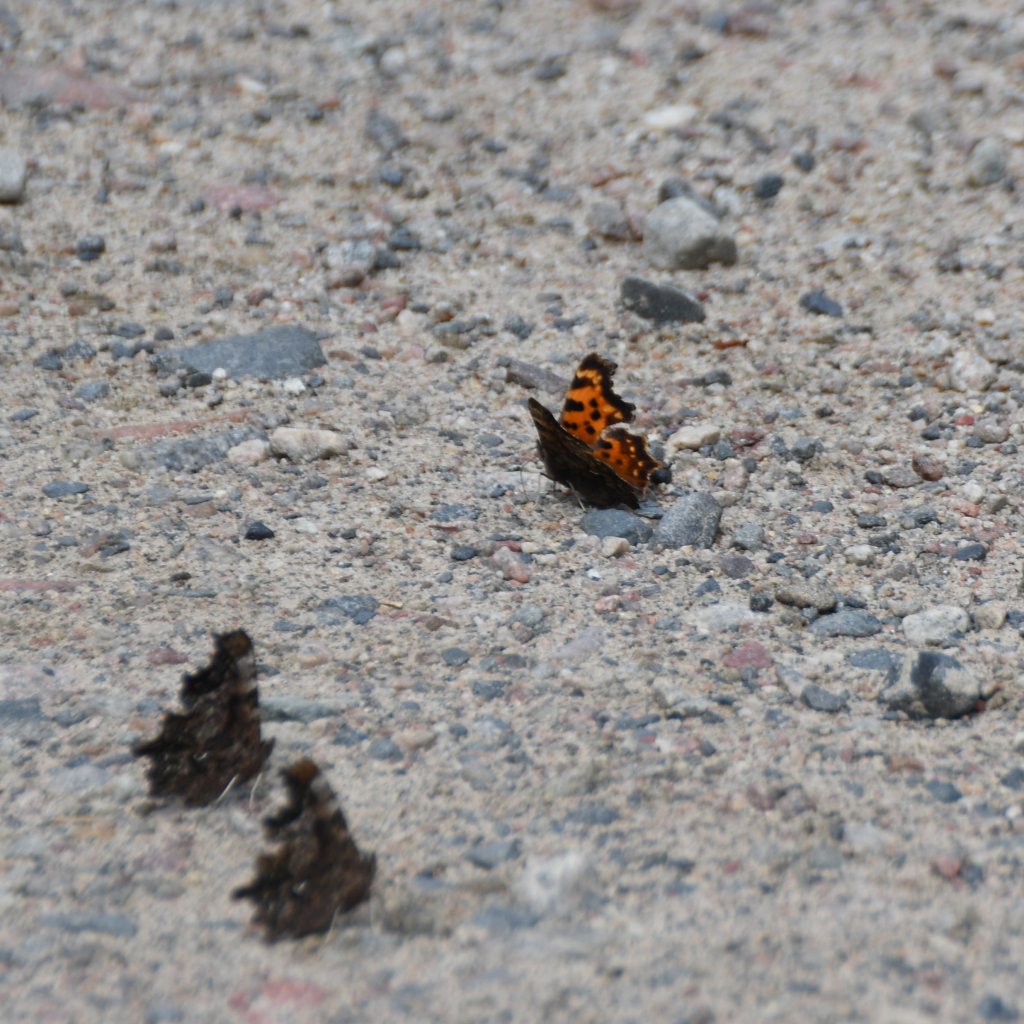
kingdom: Animalia
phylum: Arthropoda
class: Insecta
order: Lepidoptera
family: Nymphalidae
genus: Polygonia
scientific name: Polygonia faunus
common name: Green Comma
